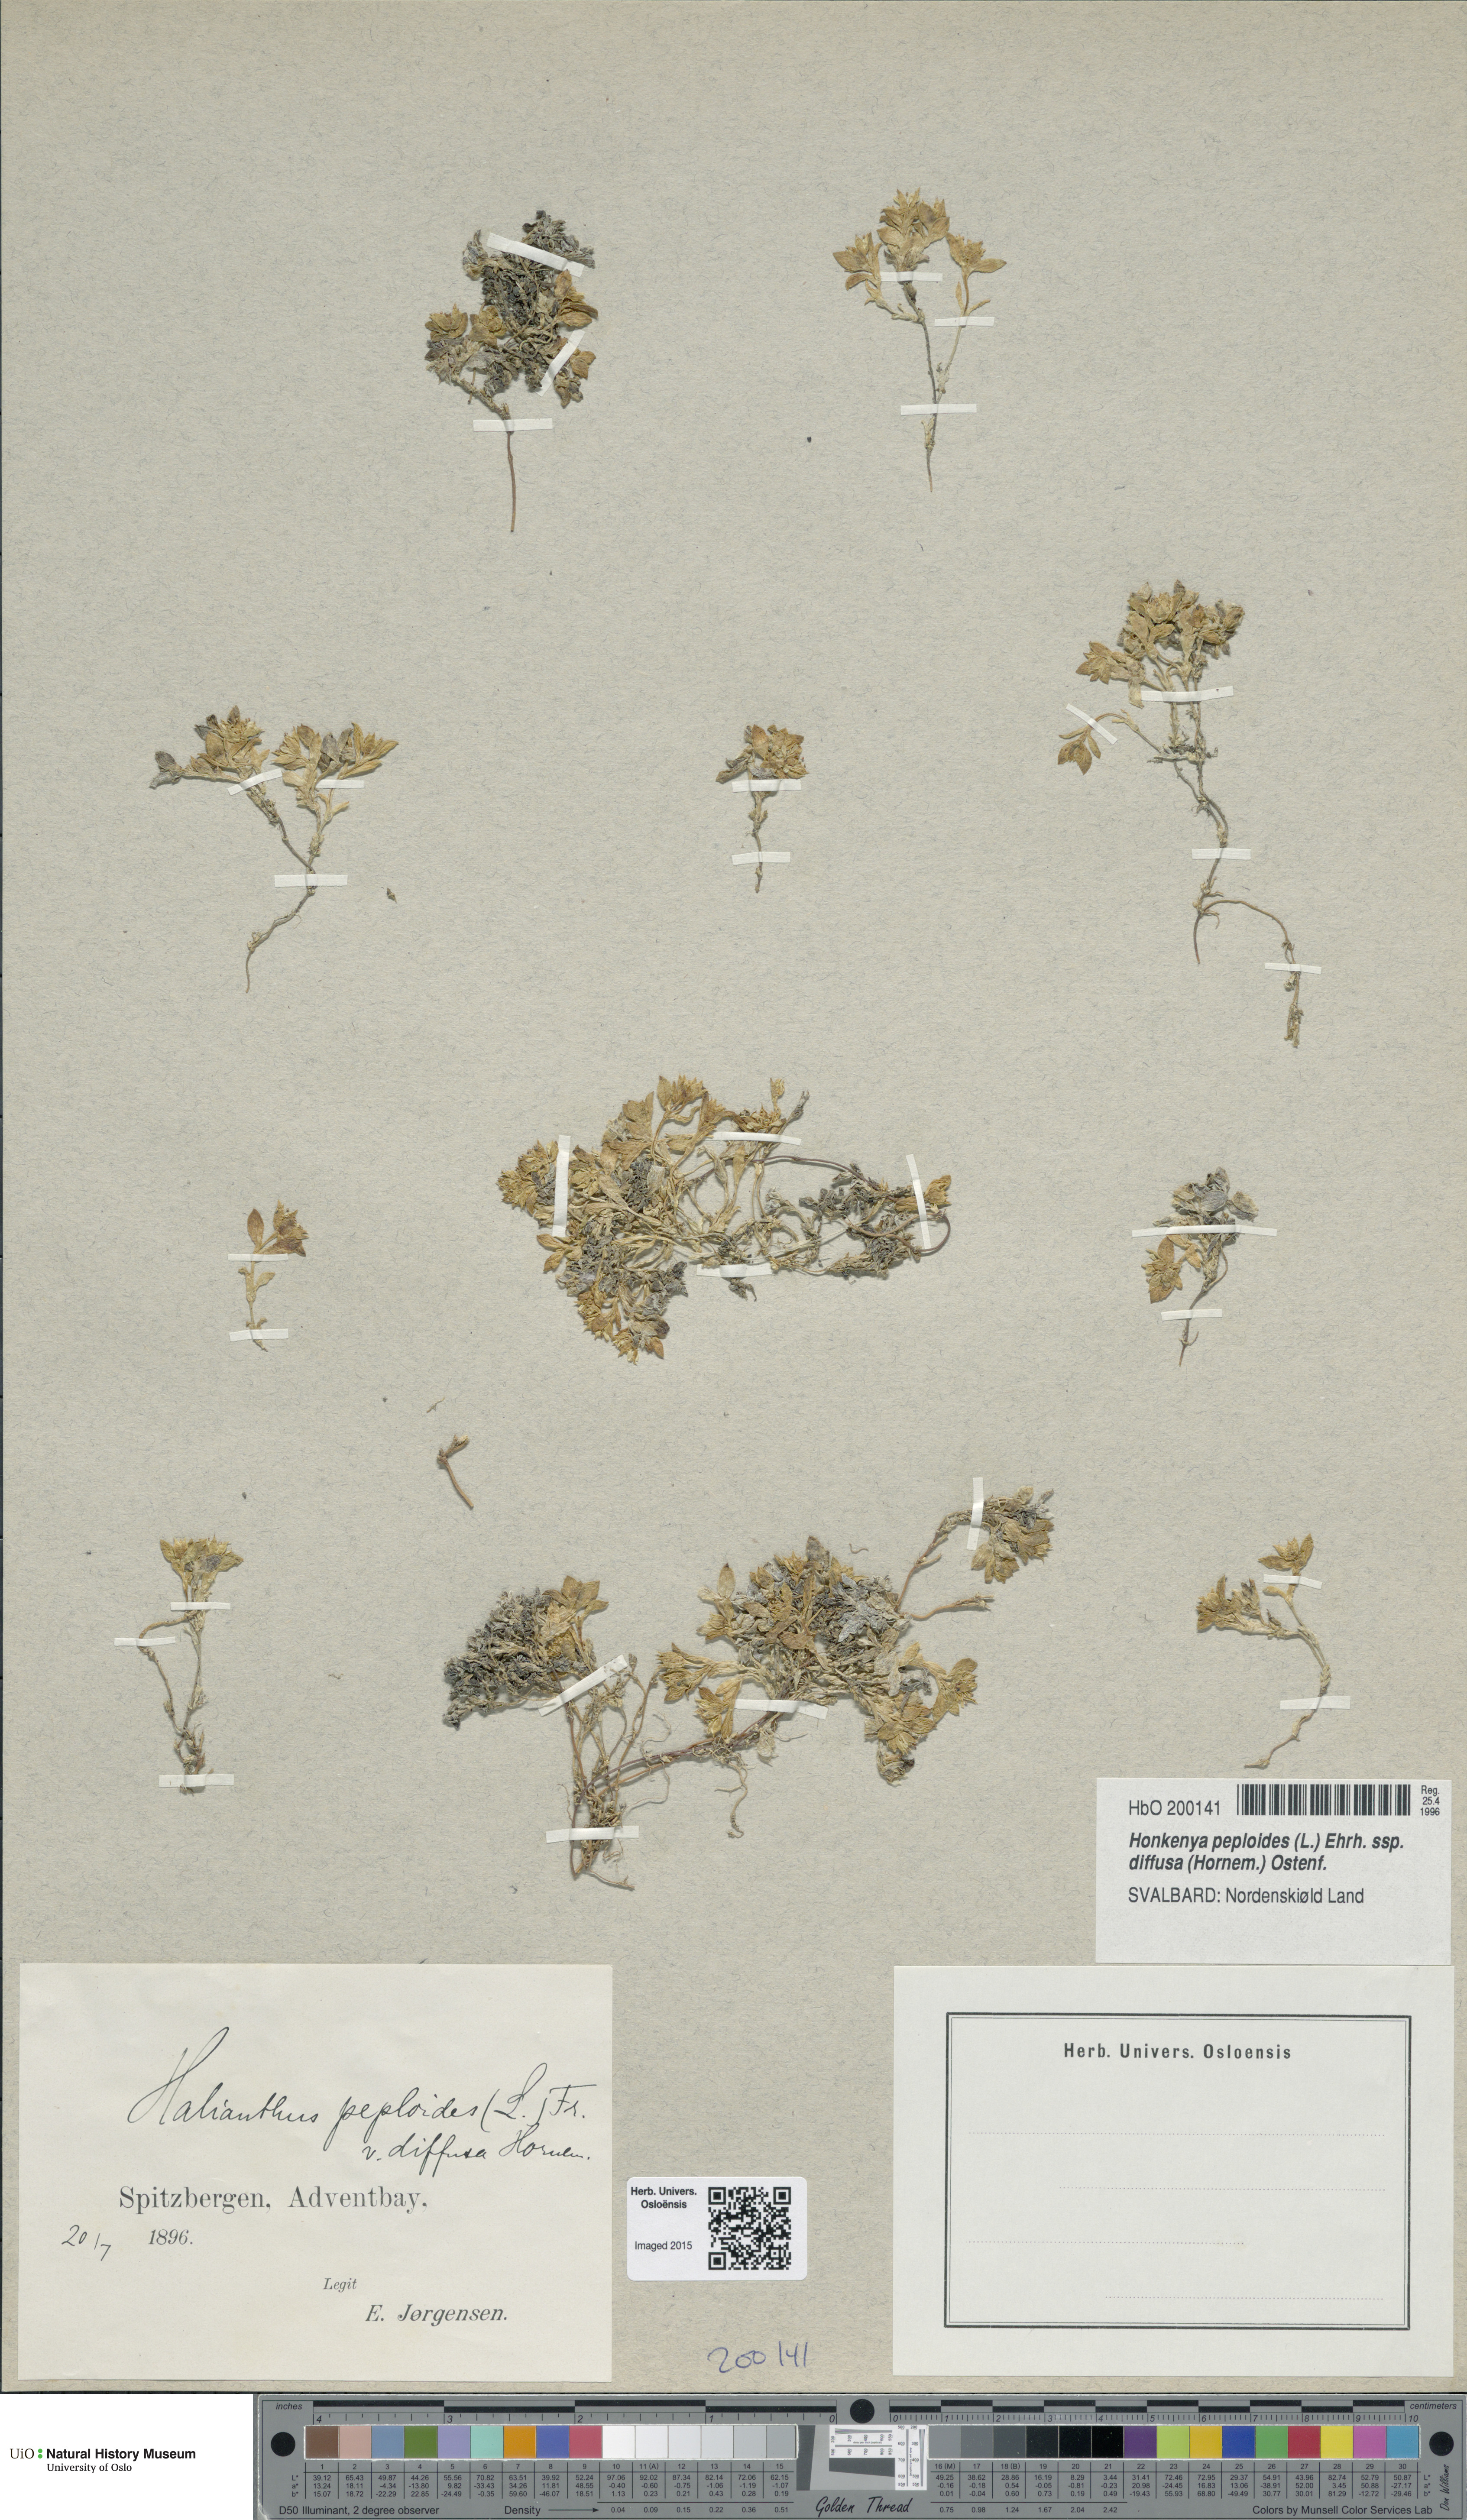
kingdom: Plantae
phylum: Tracheophyta
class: Magnoliopsida
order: Caryophyllales
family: Caryophyllaceae
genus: Honckenya
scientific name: Honckenya peploides
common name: Sea sandwort
